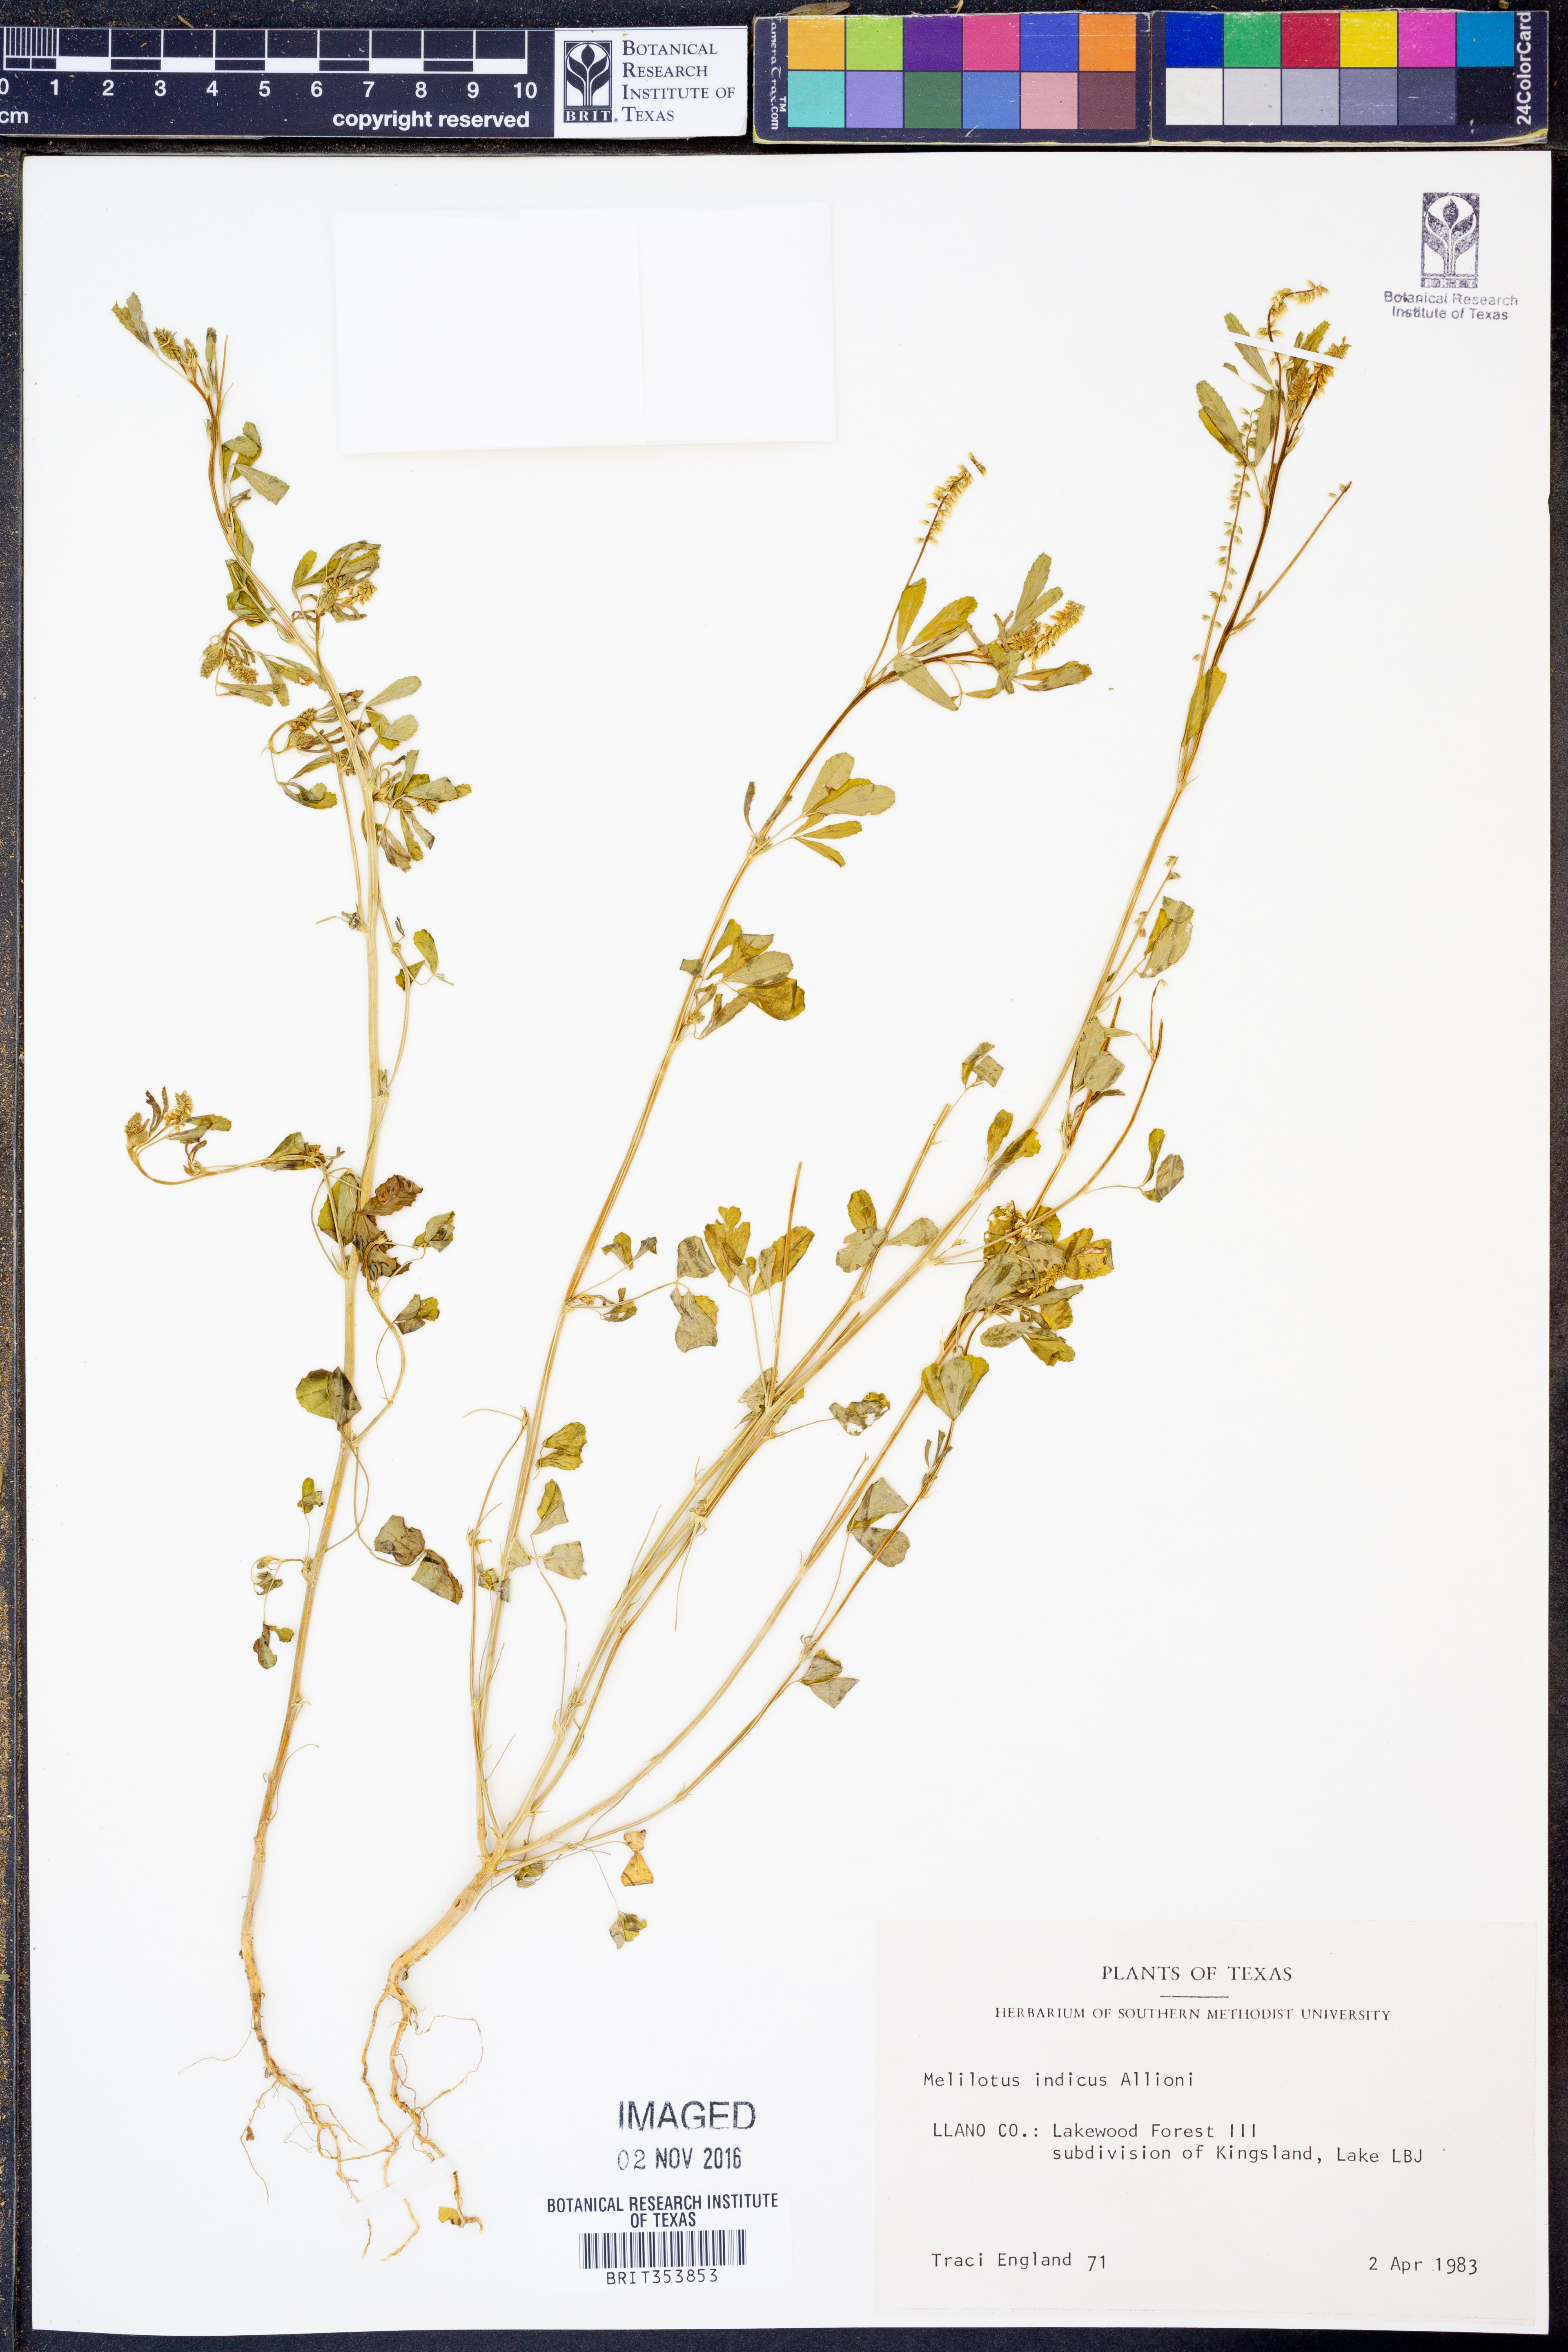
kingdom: Plantae
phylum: Tracheophyta
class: Magnoliopsida
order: Fabales
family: Fabaceae
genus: Melilotus
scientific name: Melilotus indicus
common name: Small melilot
